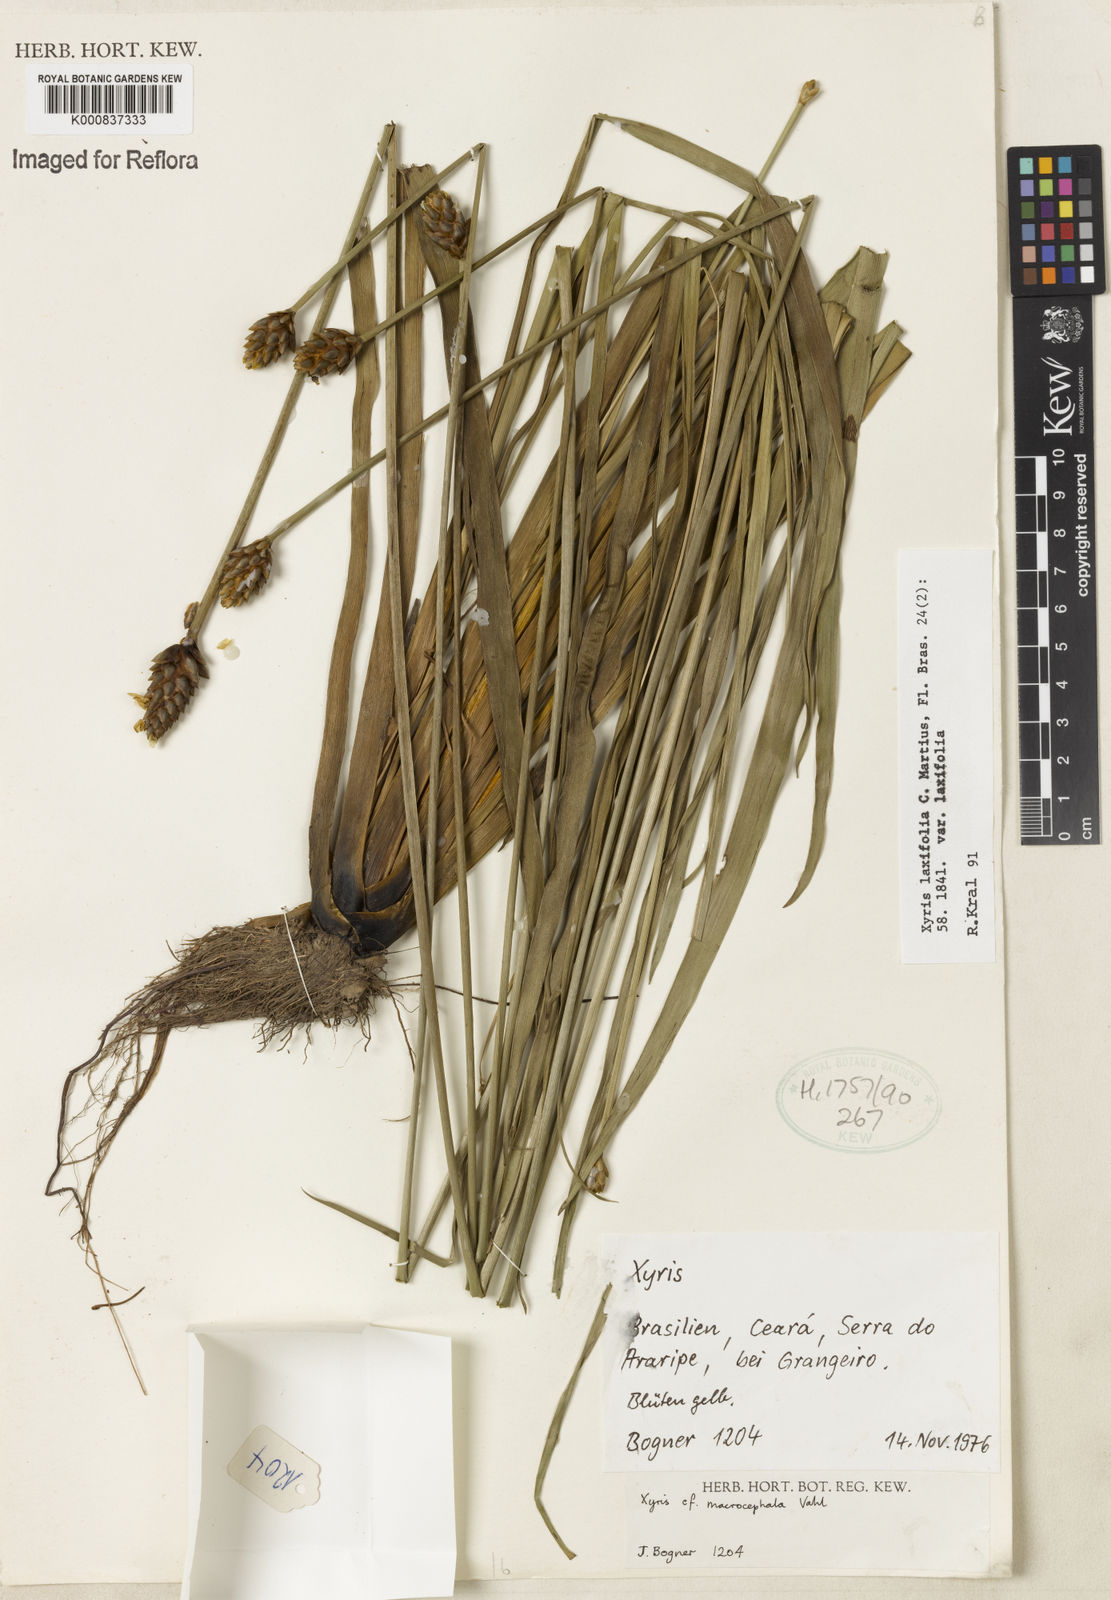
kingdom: Plantae
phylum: Tracheophyta
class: Liliopsida
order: Poales
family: Xyridaceae
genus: Xyris
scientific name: Xyris laxifolia
